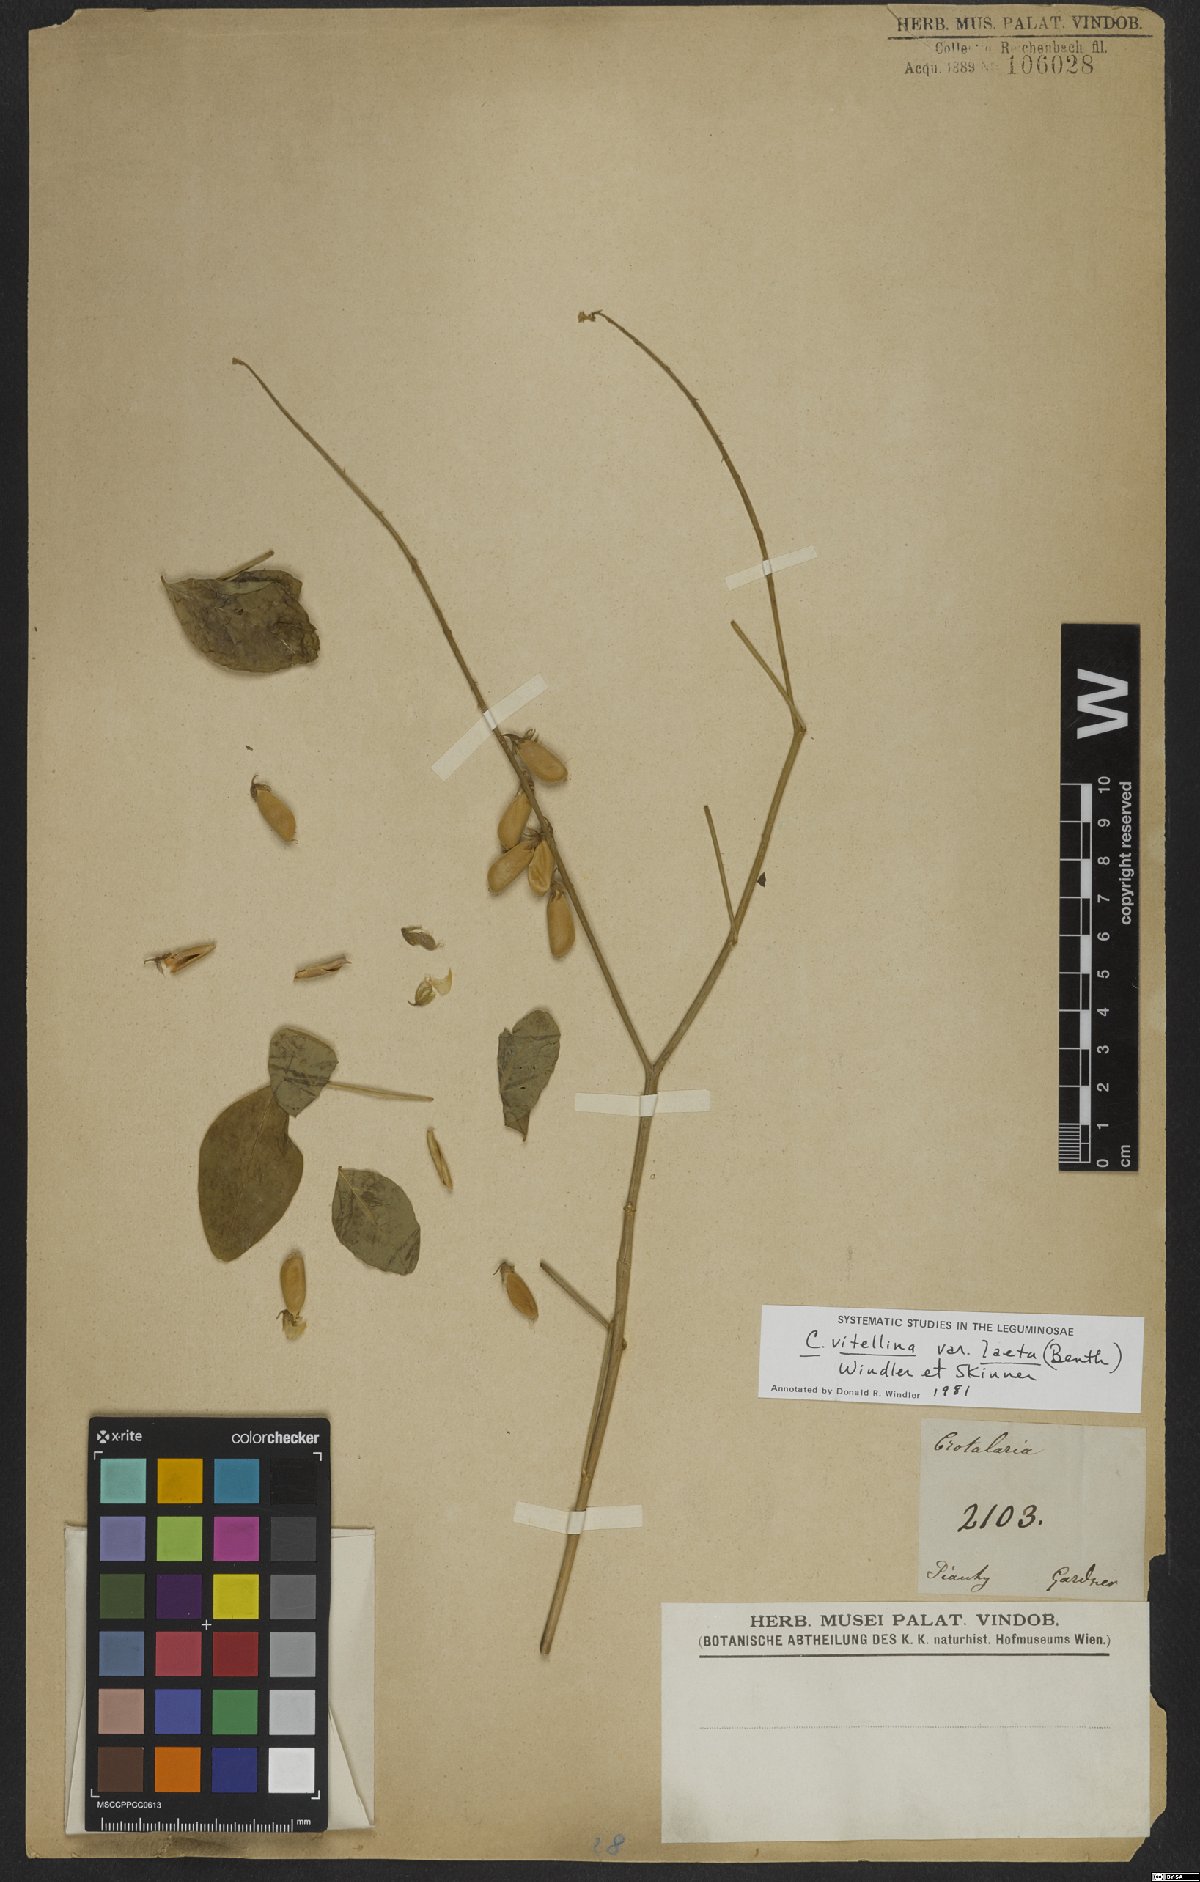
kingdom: Plantae
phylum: Tracheophyta
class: Magnoliopsida
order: Fabales
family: Fabaceae
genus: Crotalaria
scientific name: Crotalaria vitellina
